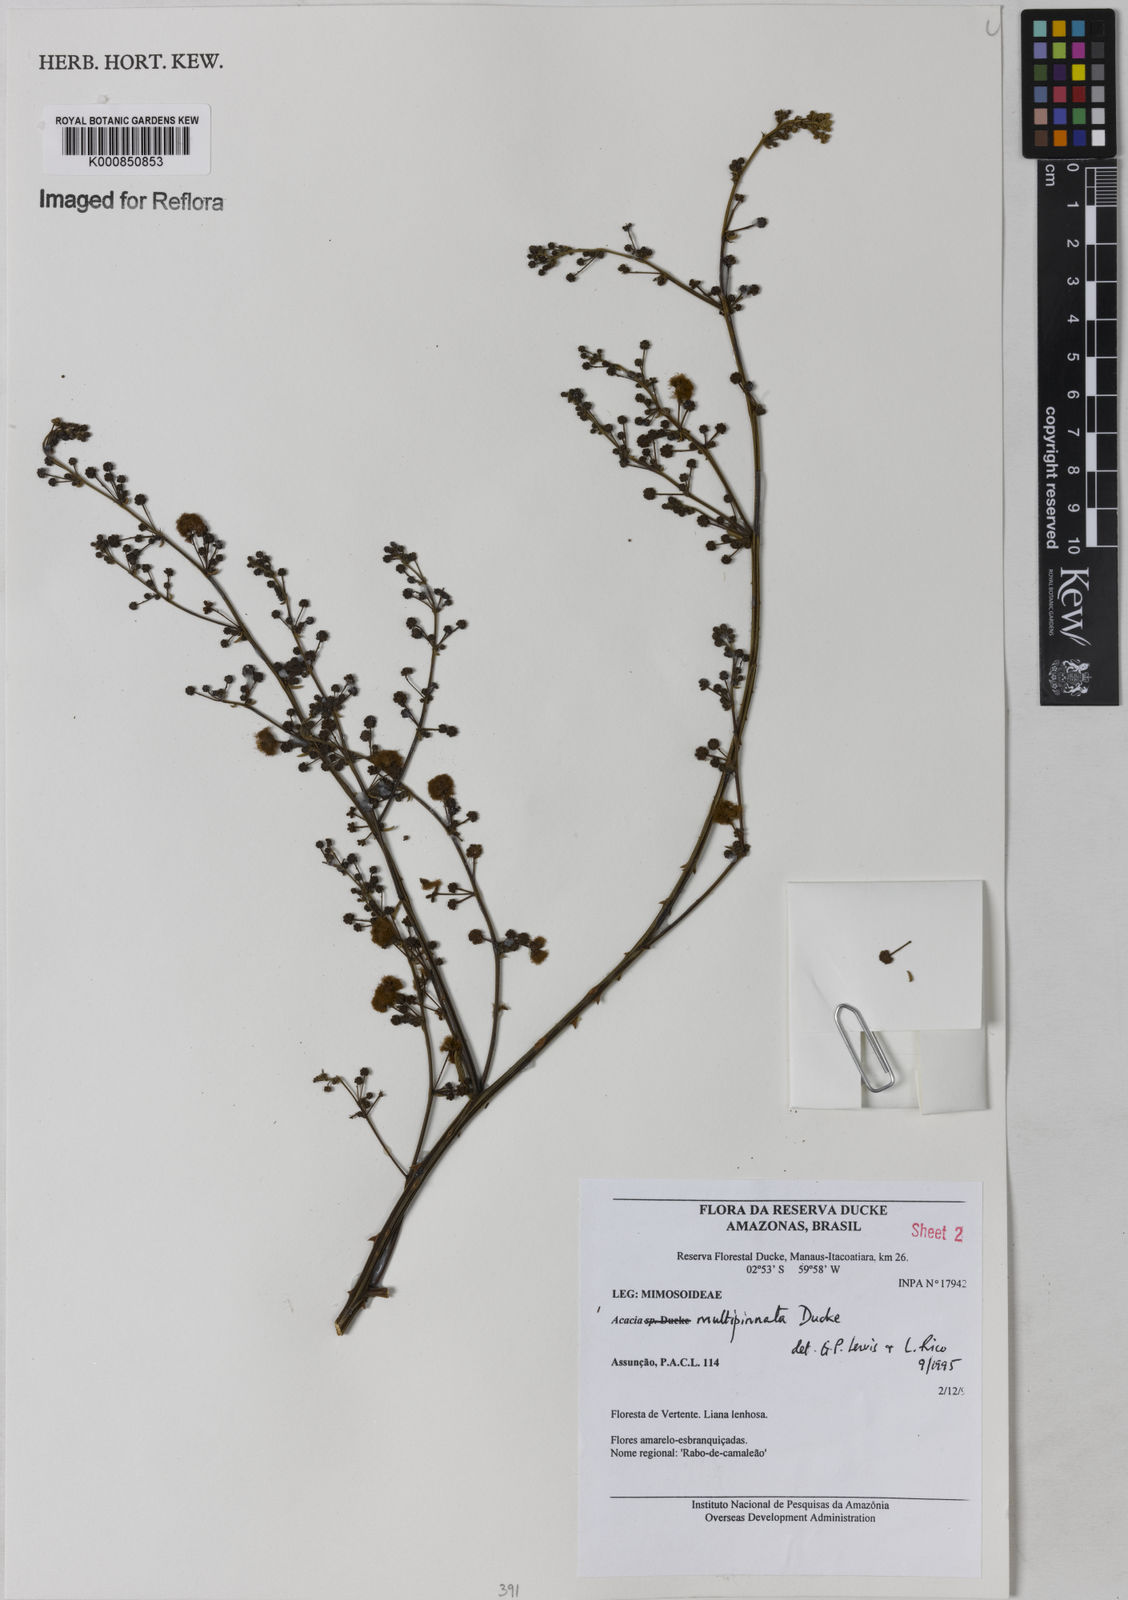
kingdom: Plantae
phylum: Tracheophyta
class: Magnoliopsida
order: Fabales
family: Fabaceae
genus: Senegalia
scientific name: Senegalia paniculata
